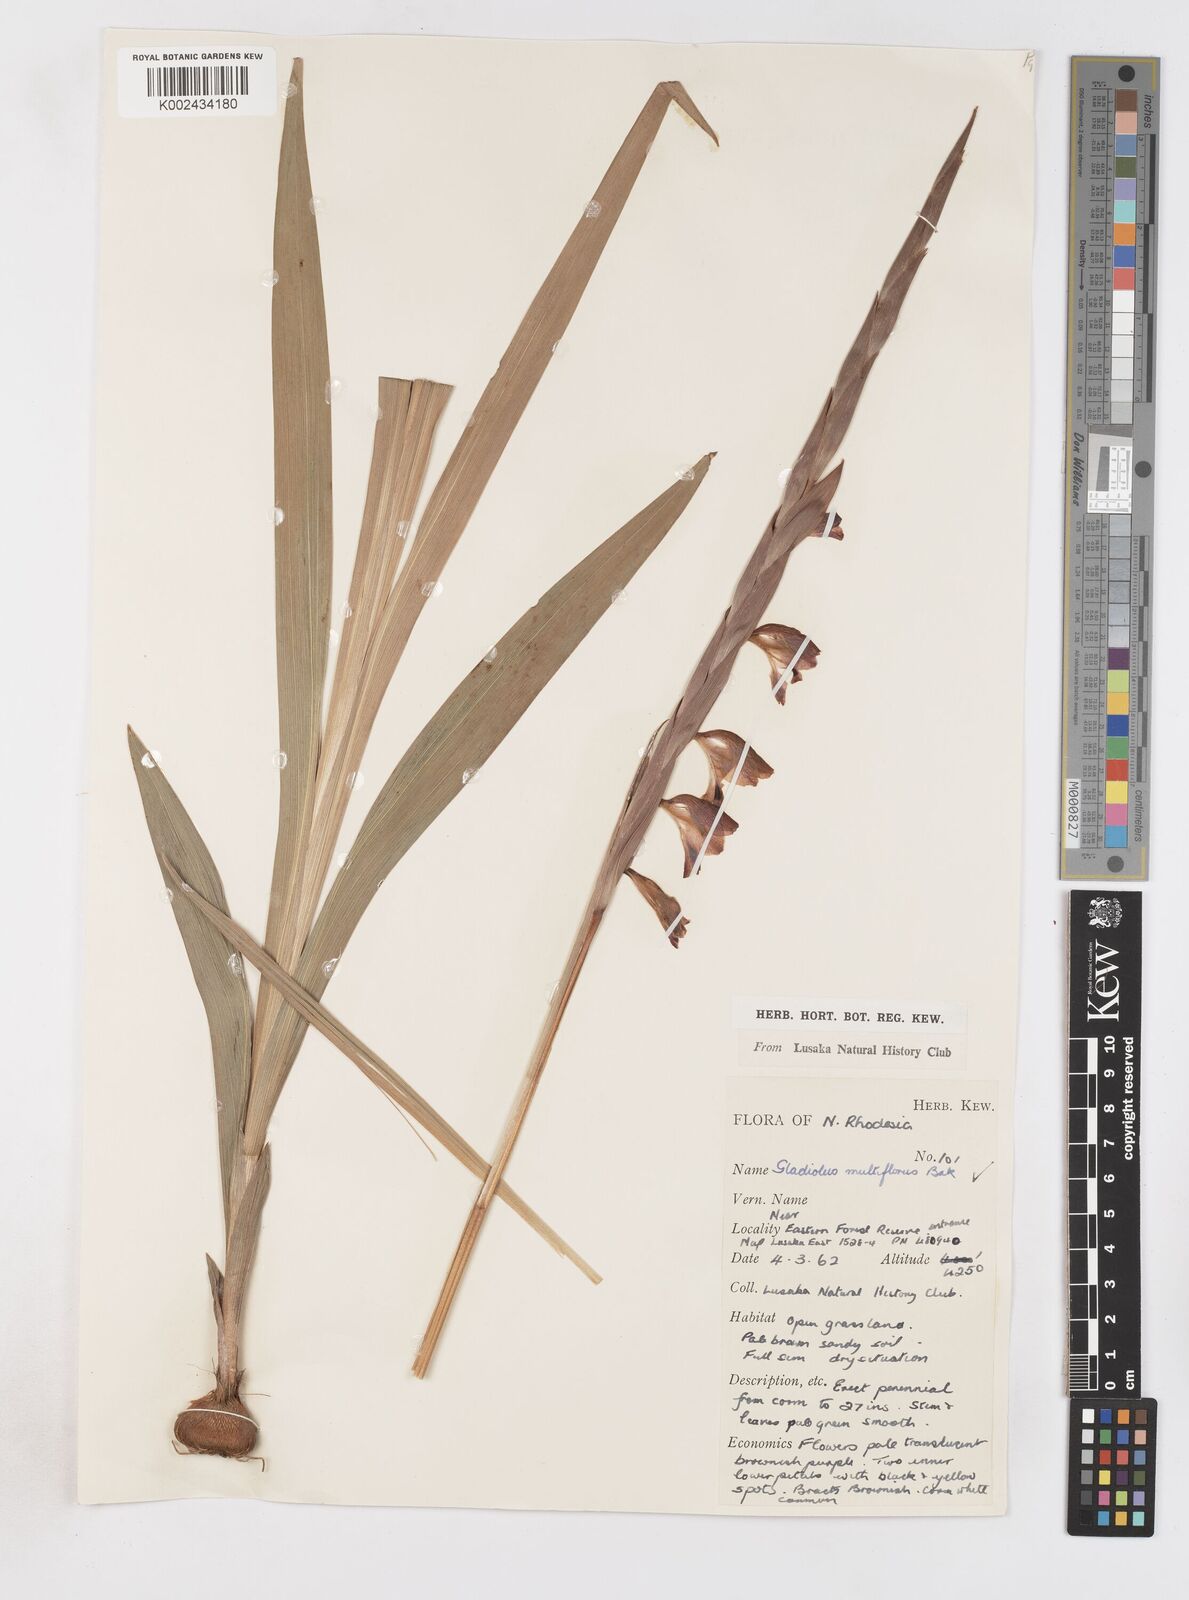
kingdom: Plantae
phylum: Tracheophyta
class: Liliopsida
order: Asparagales
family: Iridaceae
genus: Gladiolus
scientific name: Gladiolus gregarius
